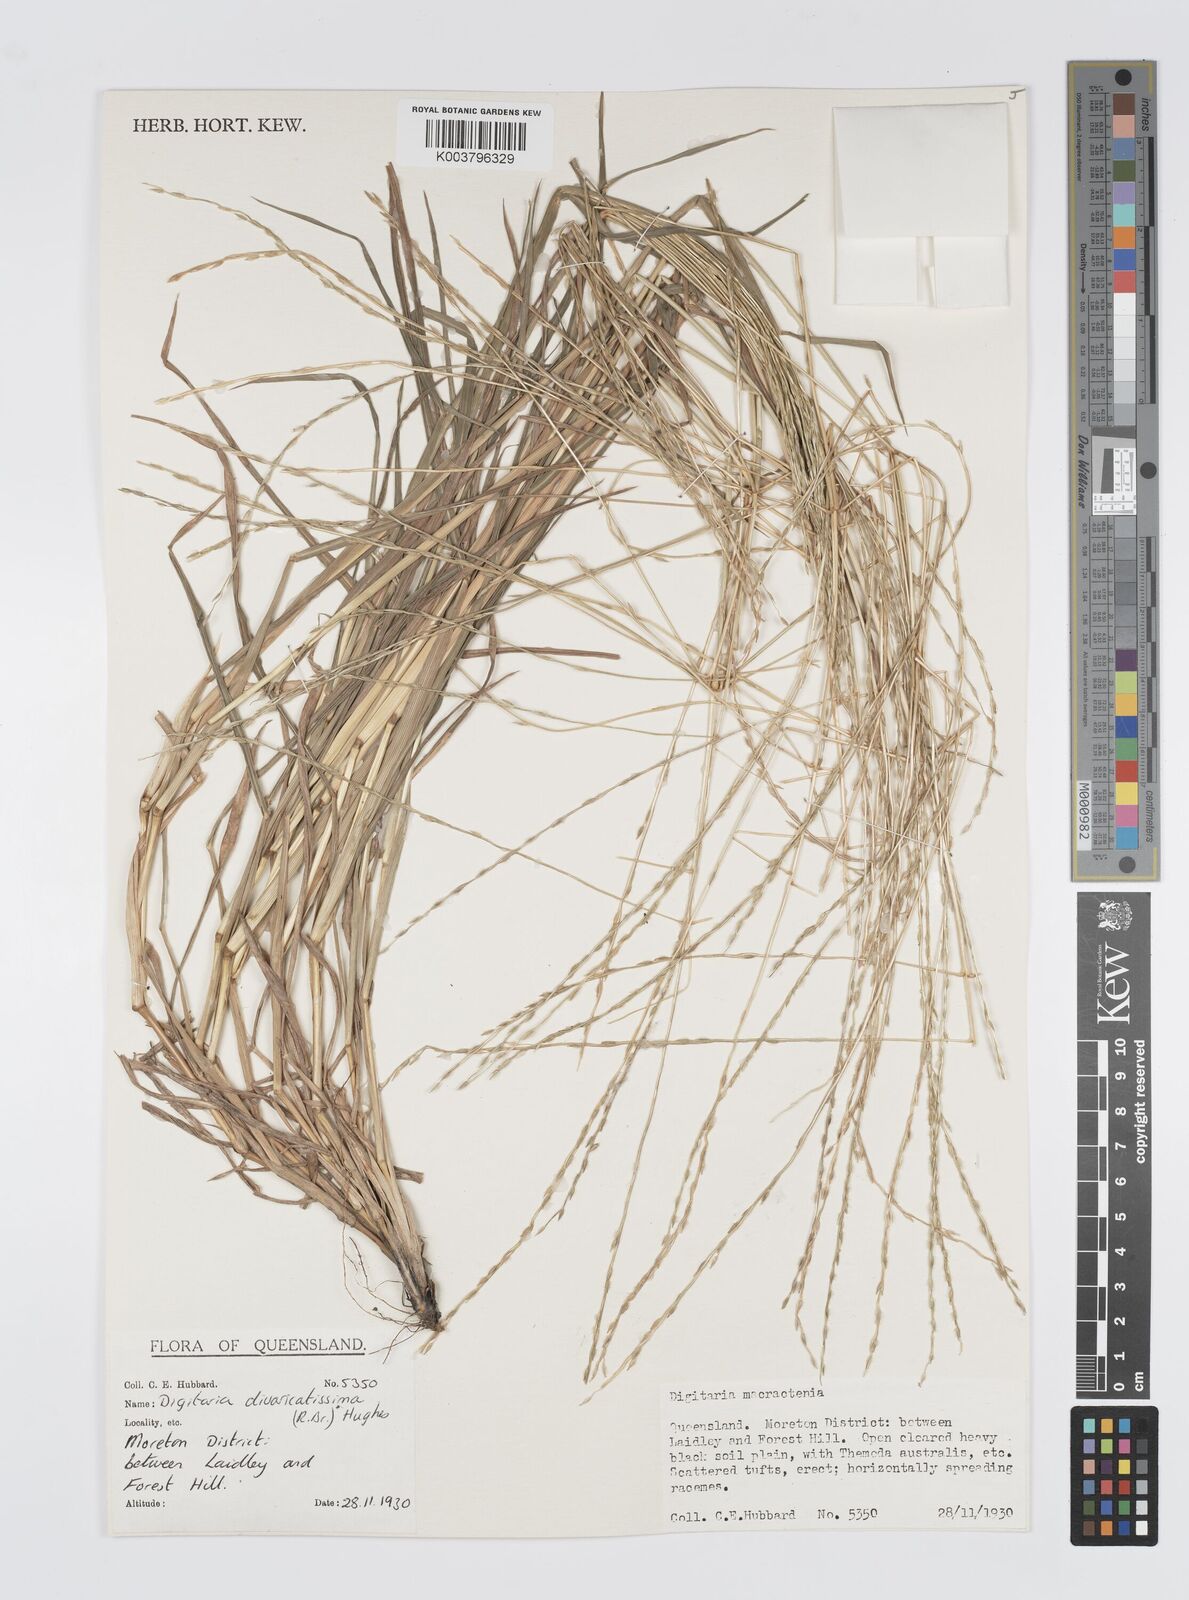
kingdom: Plantae
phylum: Tracheophyta
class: Liliopsida
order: Poales
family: Poaceae
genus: Digitaria
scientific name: Digitaria spec
